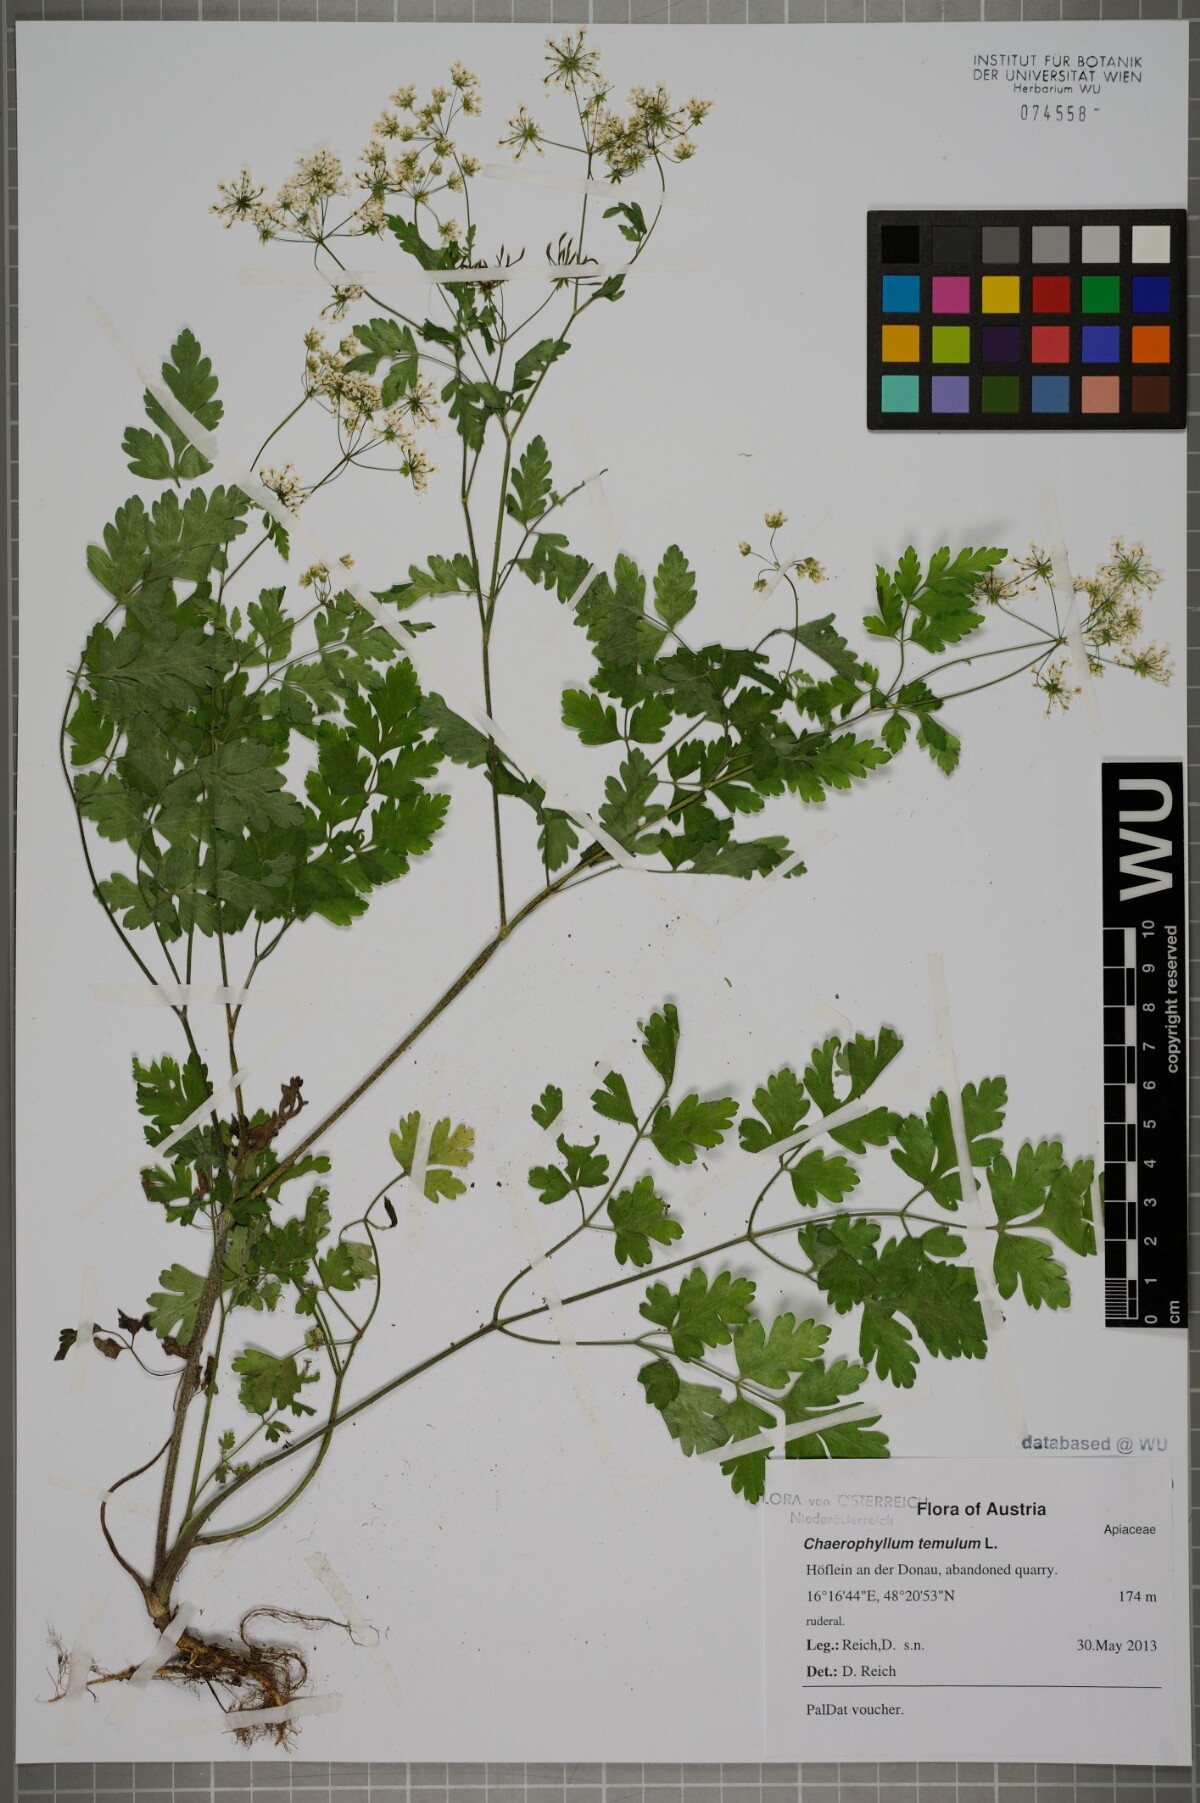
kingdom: Plantae
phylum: Tracheophyta
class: Magnoliopsida
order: Apiales
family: Apiaceae
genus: Chaerophyllum
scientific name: Chaerophyllum temulum
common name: Rough chervil
